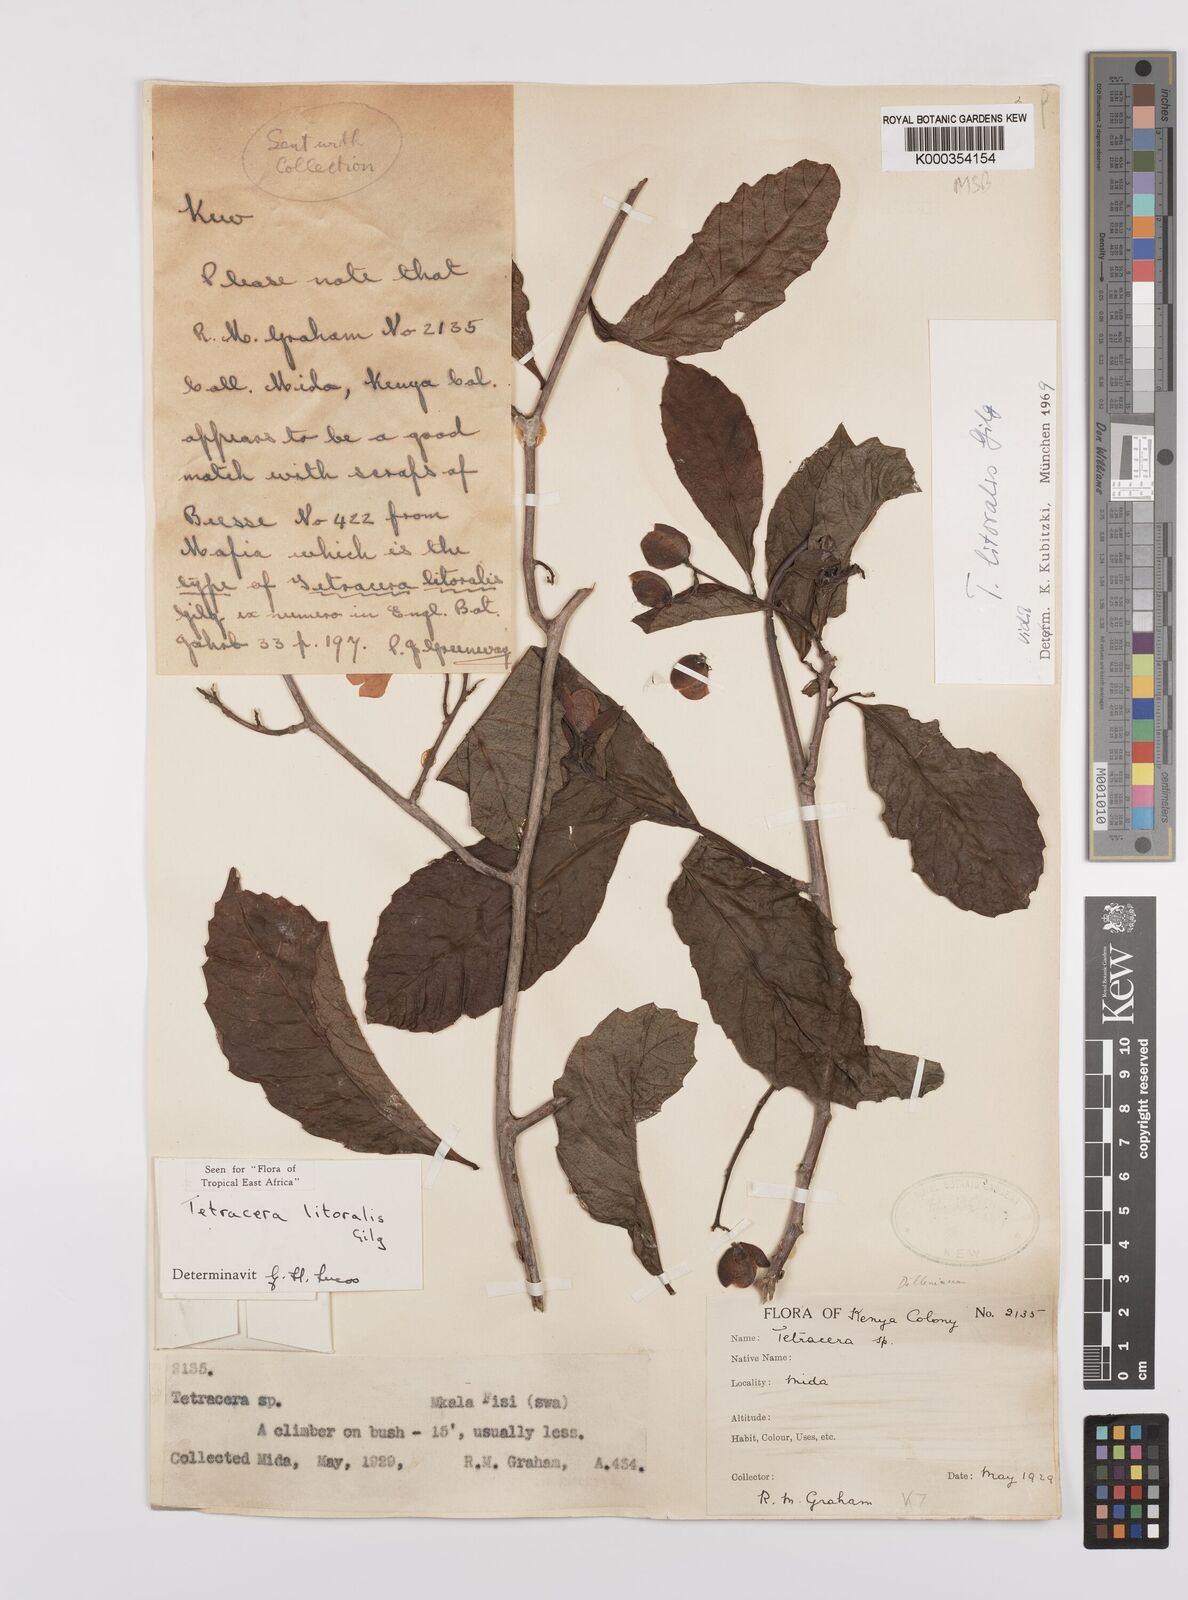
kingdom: Plantae
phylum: Tracheophyta
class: Magnoliopsida
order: Dilleniales
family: Dilleniaceae
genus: Tetracera
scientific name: Tetracera litoralis
